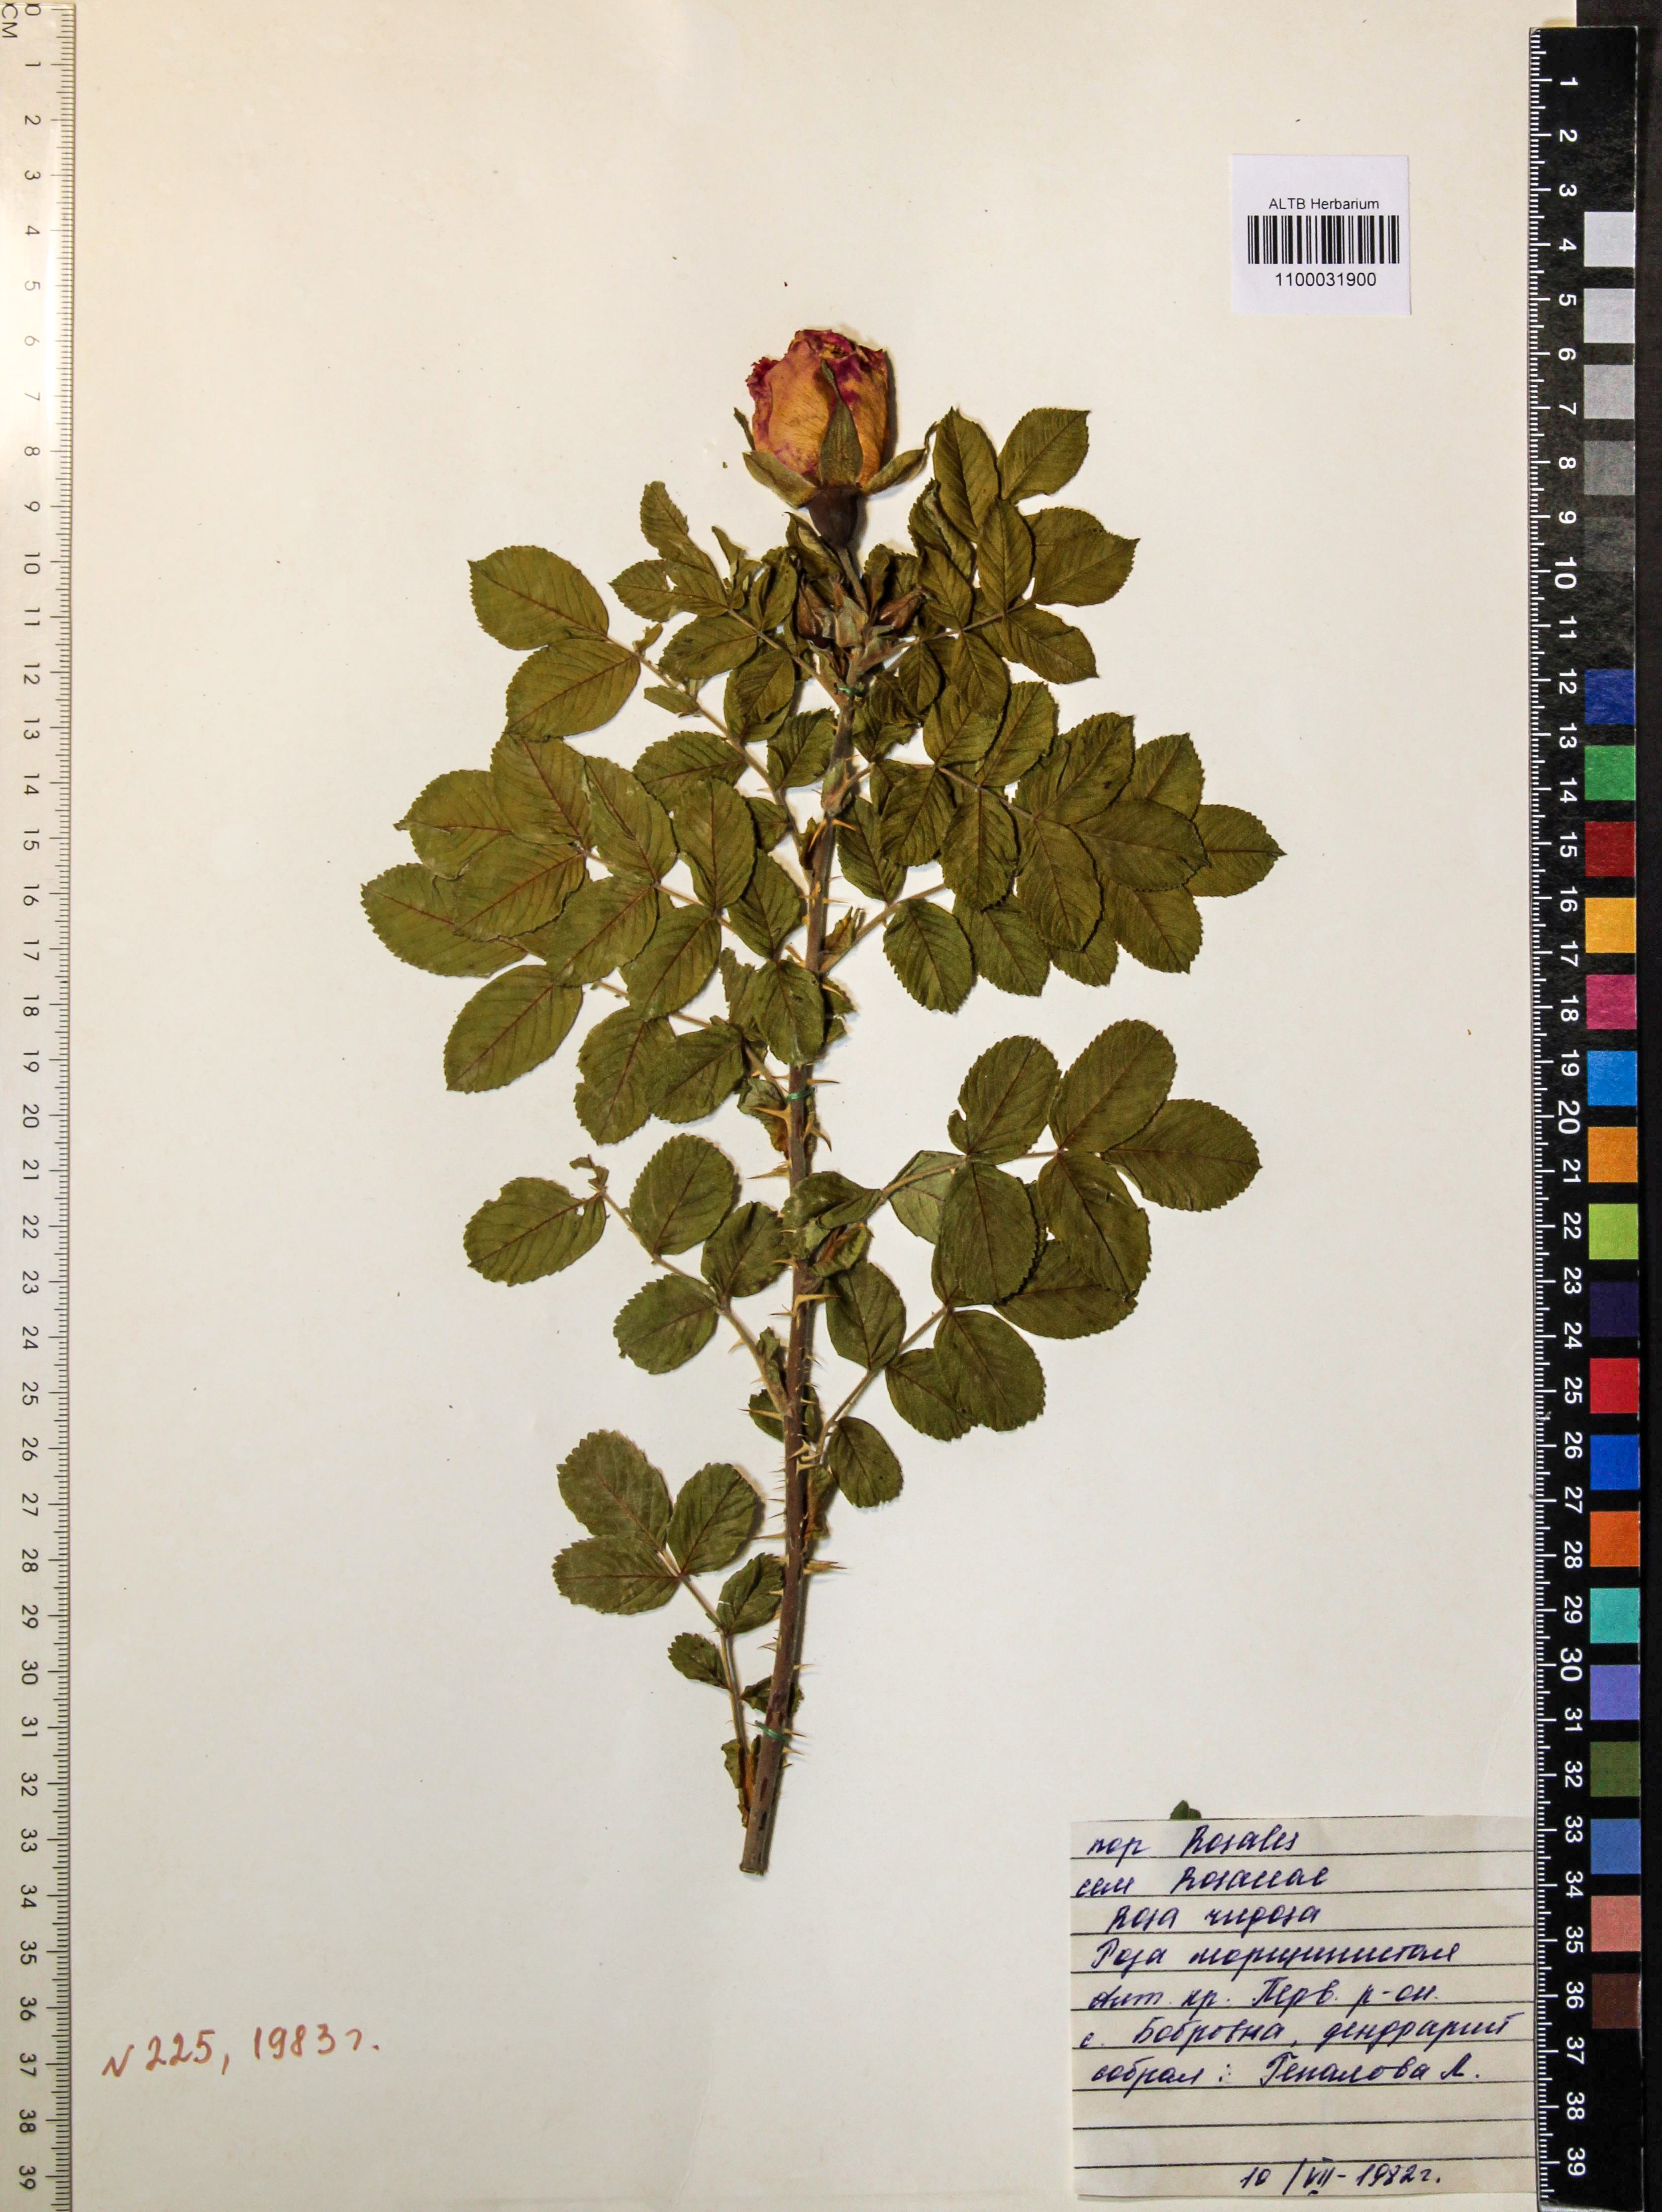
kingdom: Plantae
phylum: Tracheophyta
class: Magnoliopsida
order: Rosales
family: Rosaceae
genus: Rosa
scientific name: Rosa rugosa
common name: Japanese rose
